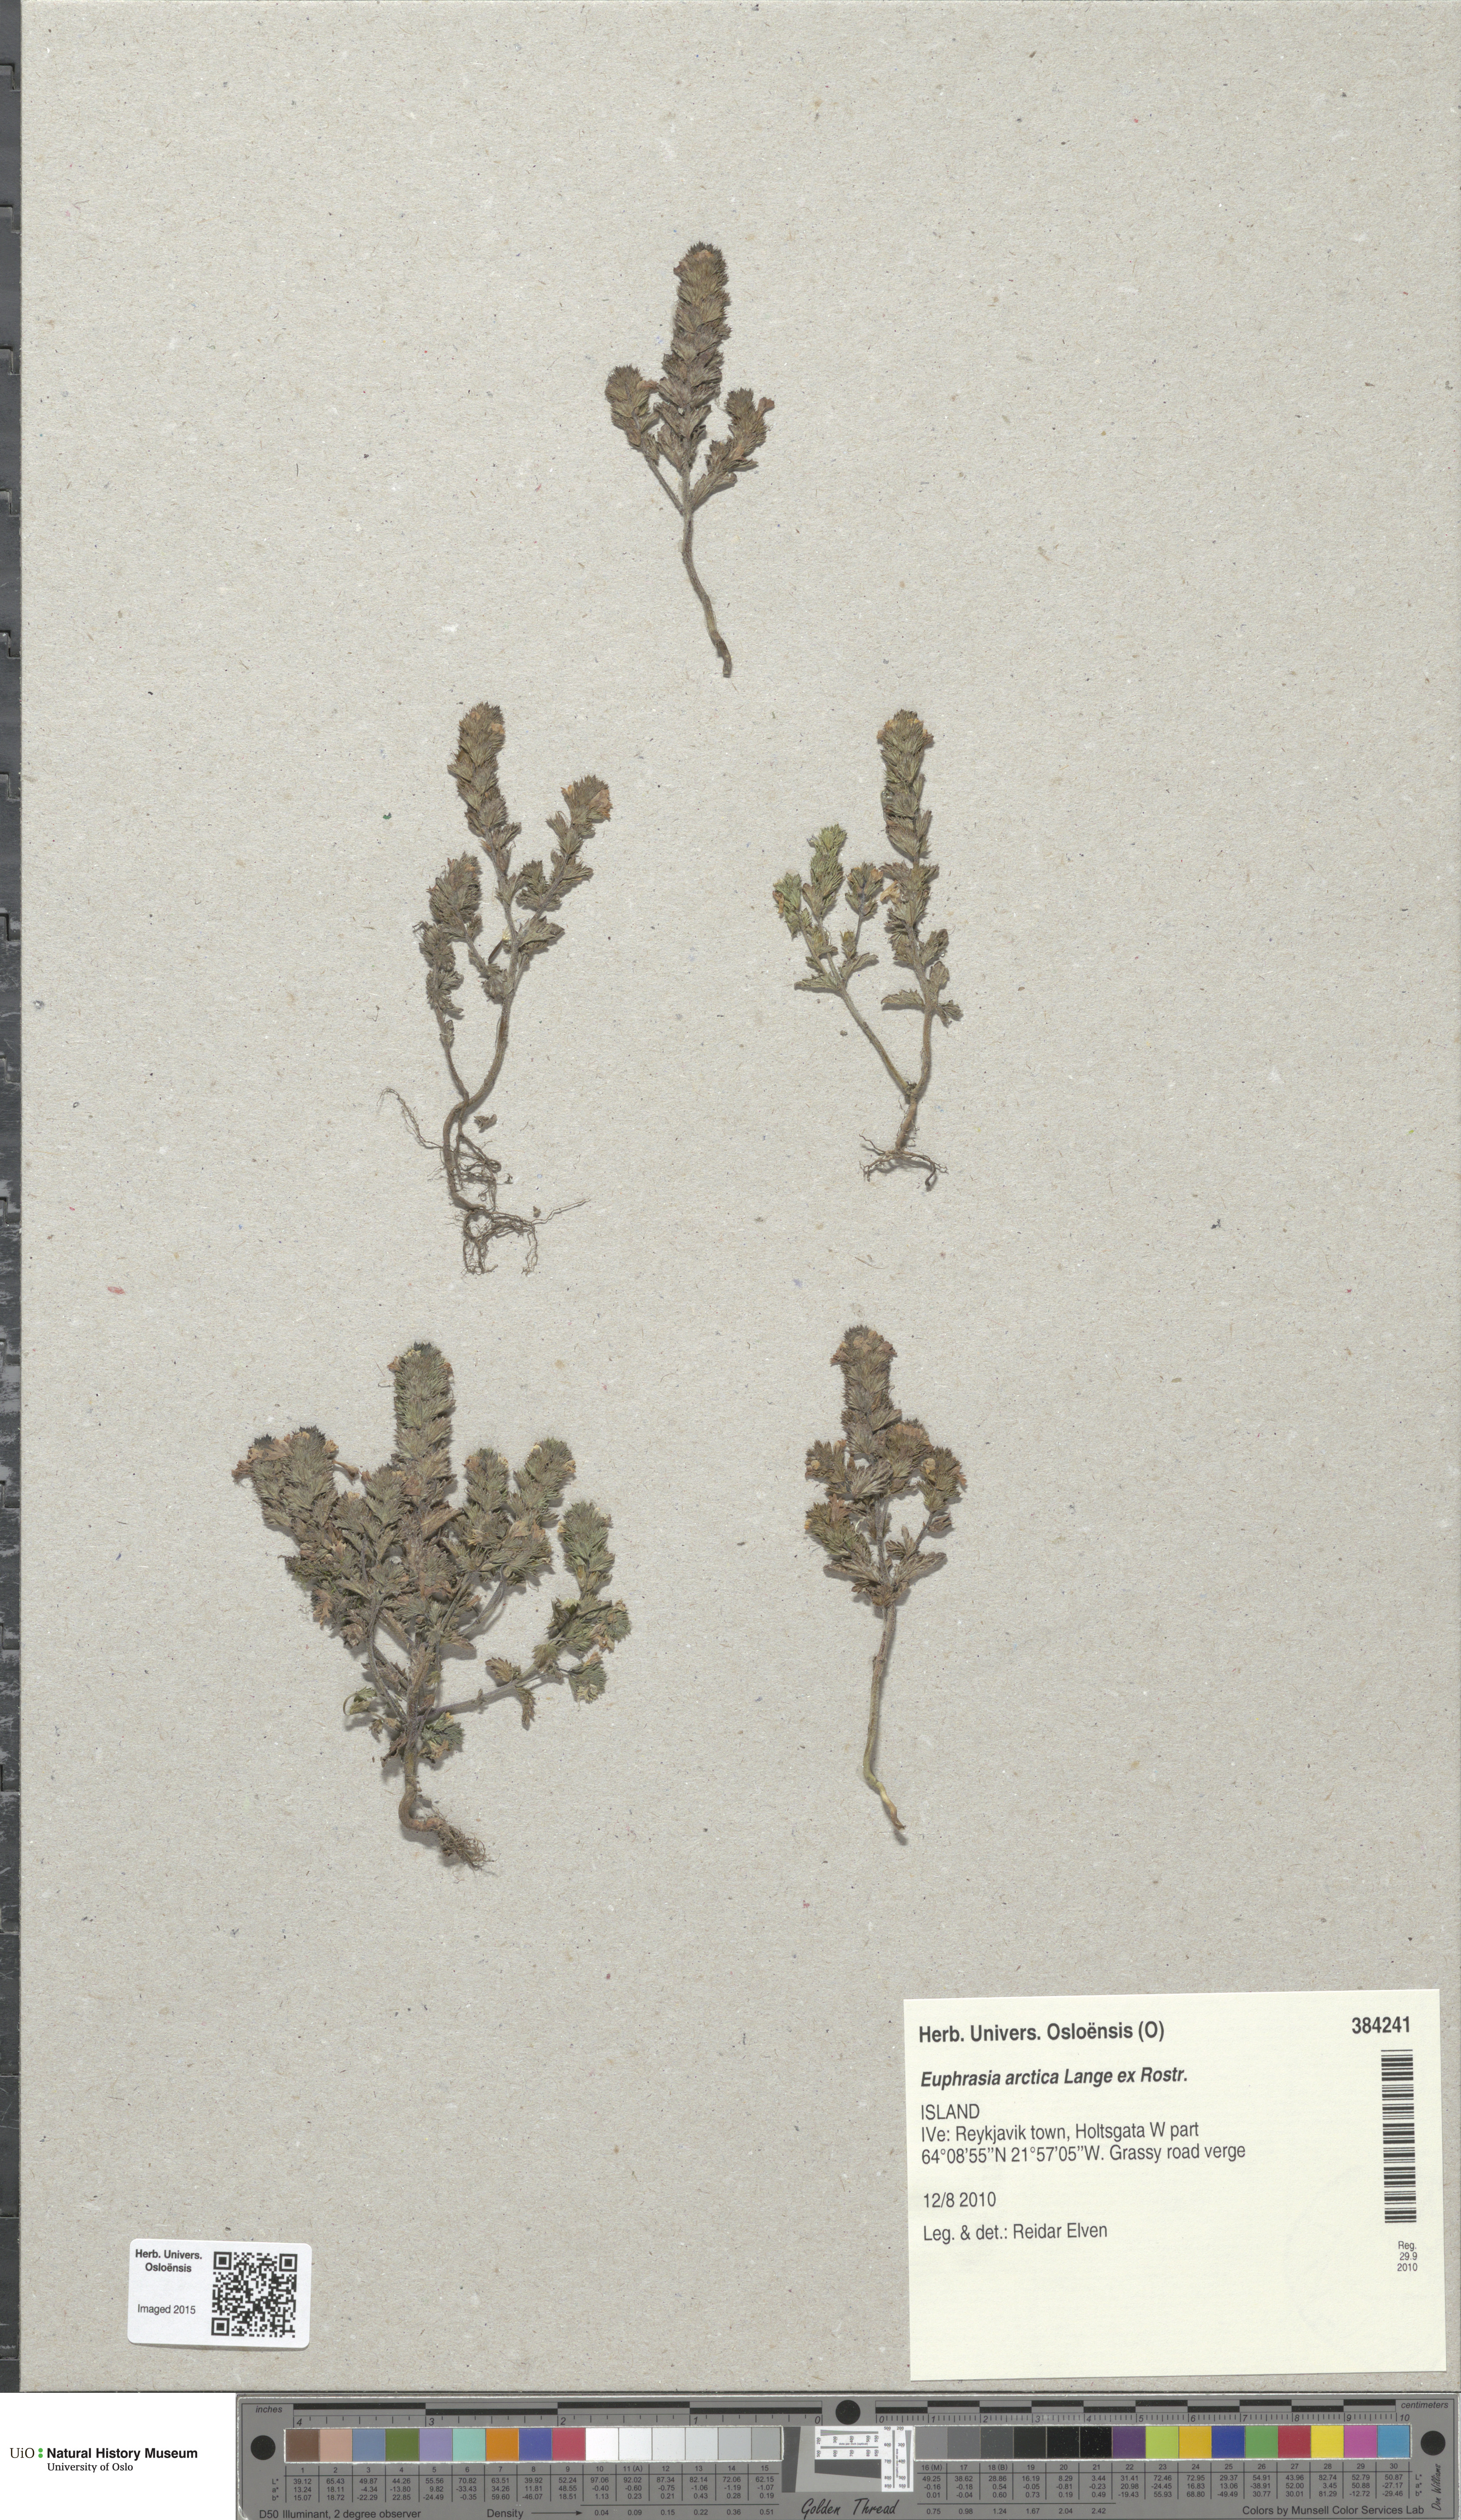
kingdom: Plantae
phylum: Tracheophyta
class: Magnoliopsida
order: Lamiales
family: Orobanchaceae
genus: Euphrasia
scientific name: Euphrasia arctica
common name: An eyebright
